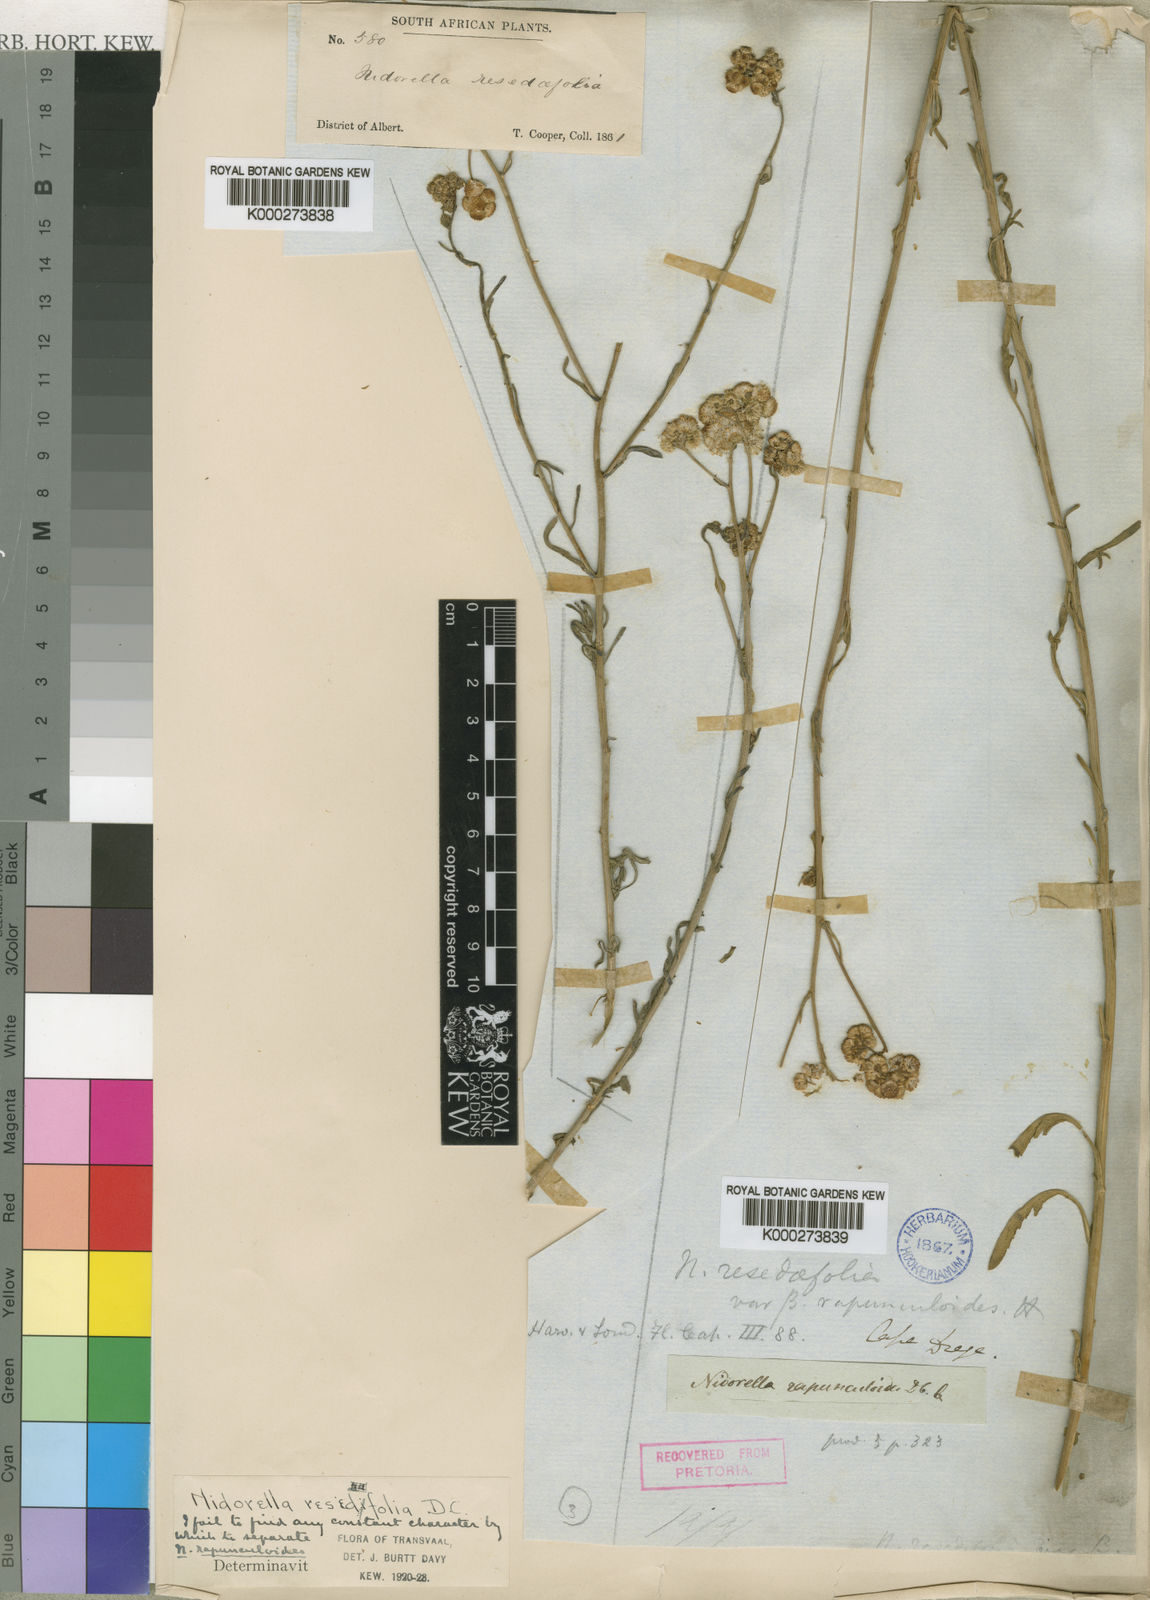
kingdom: Plantae
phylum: Tracheophyta
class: Magnoliopsida
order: Asterales
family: Asteraceae
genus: Nidorella
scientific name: Nidorella resedifolia
